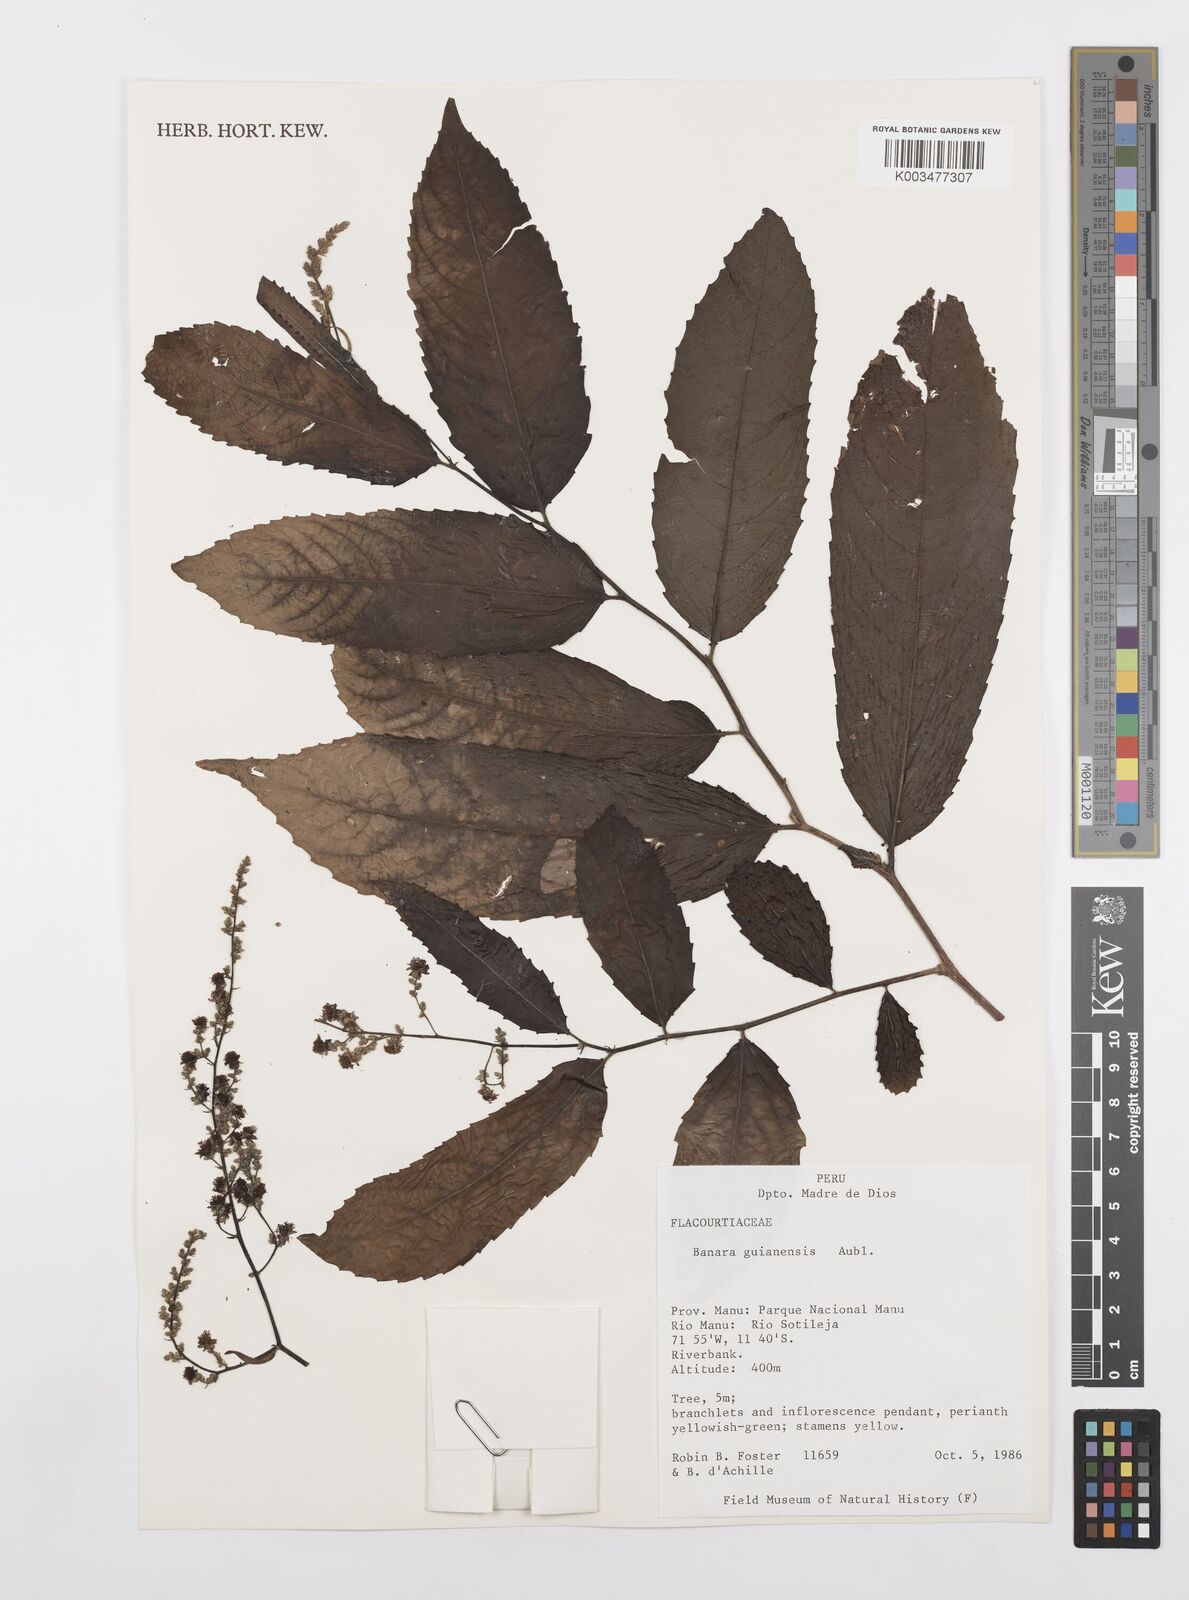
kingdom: Plantae
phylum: Tracheophyta
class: Magnoliopsida
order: Malpighiales
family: Salicaceae
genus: Banara
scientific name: Banara guianensis
